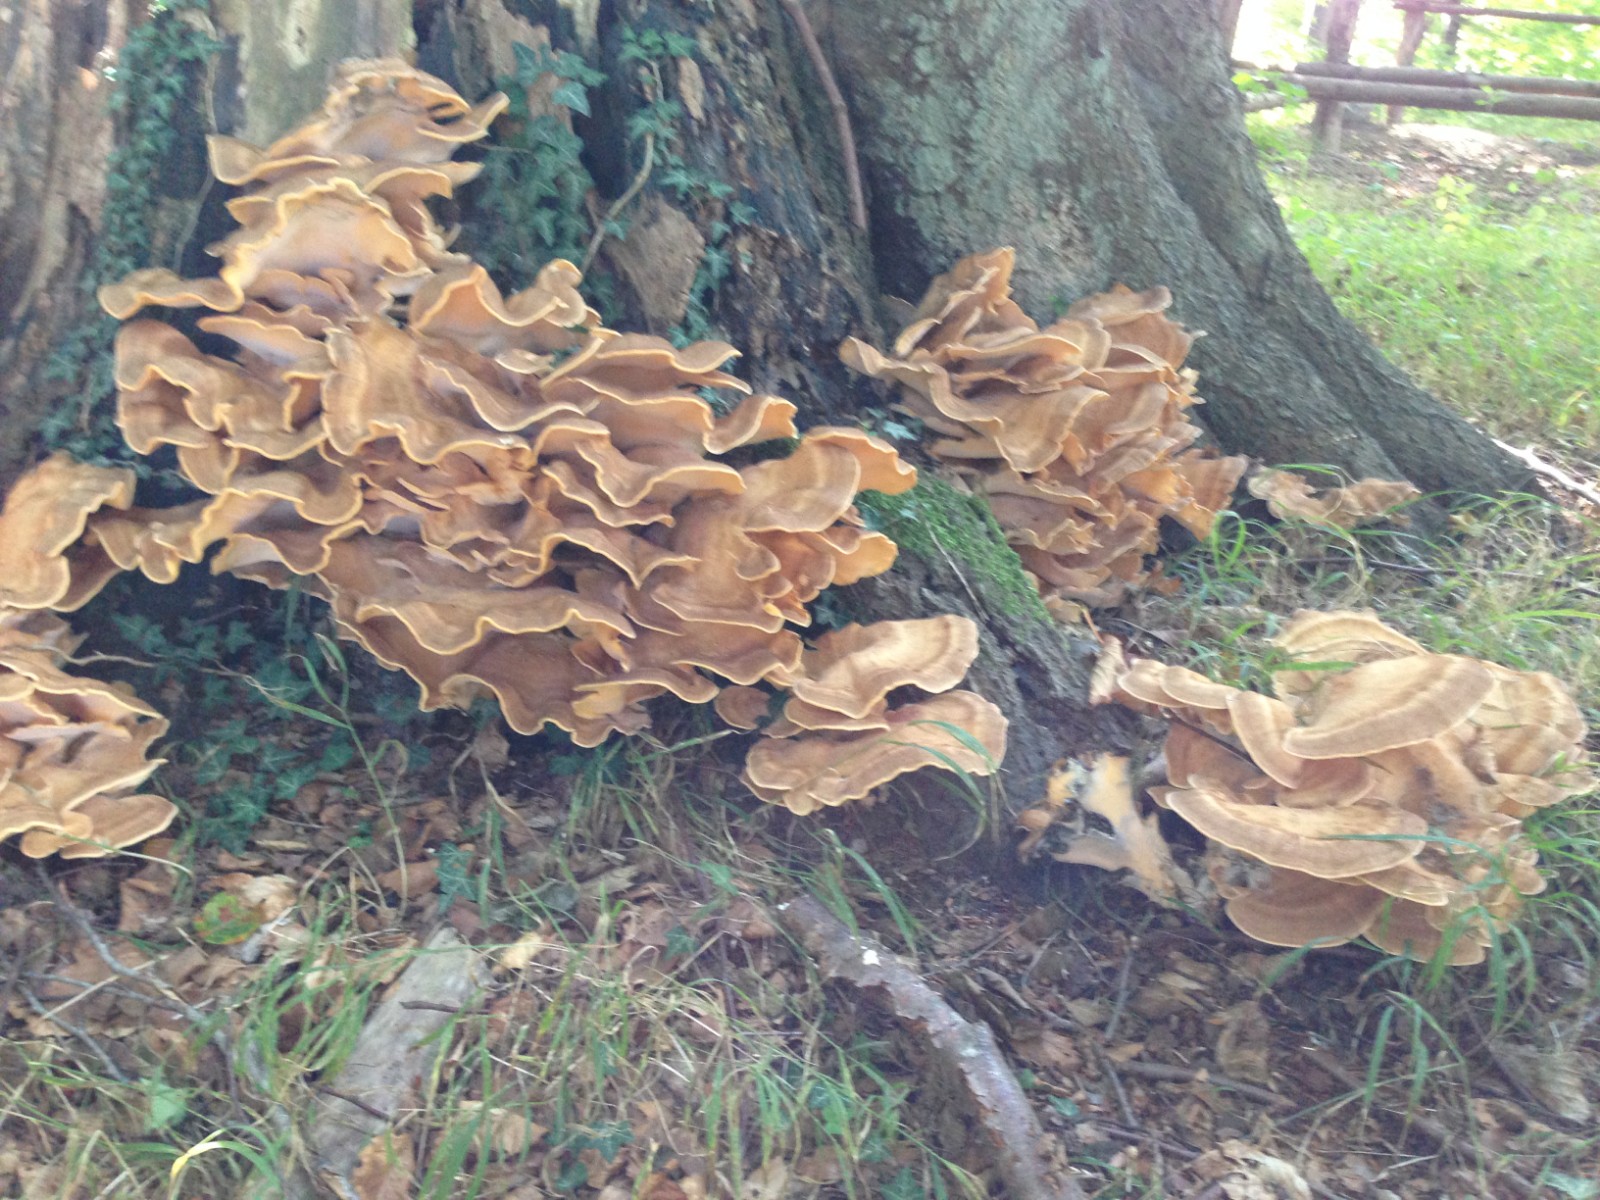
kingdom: Fungi
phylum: Basidiomycota
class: Agaricomycetes
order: Polyporales
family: Meripilaceae
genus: Meripilus
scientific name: Meripilus giganteus
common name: kæmpeporesvamp
